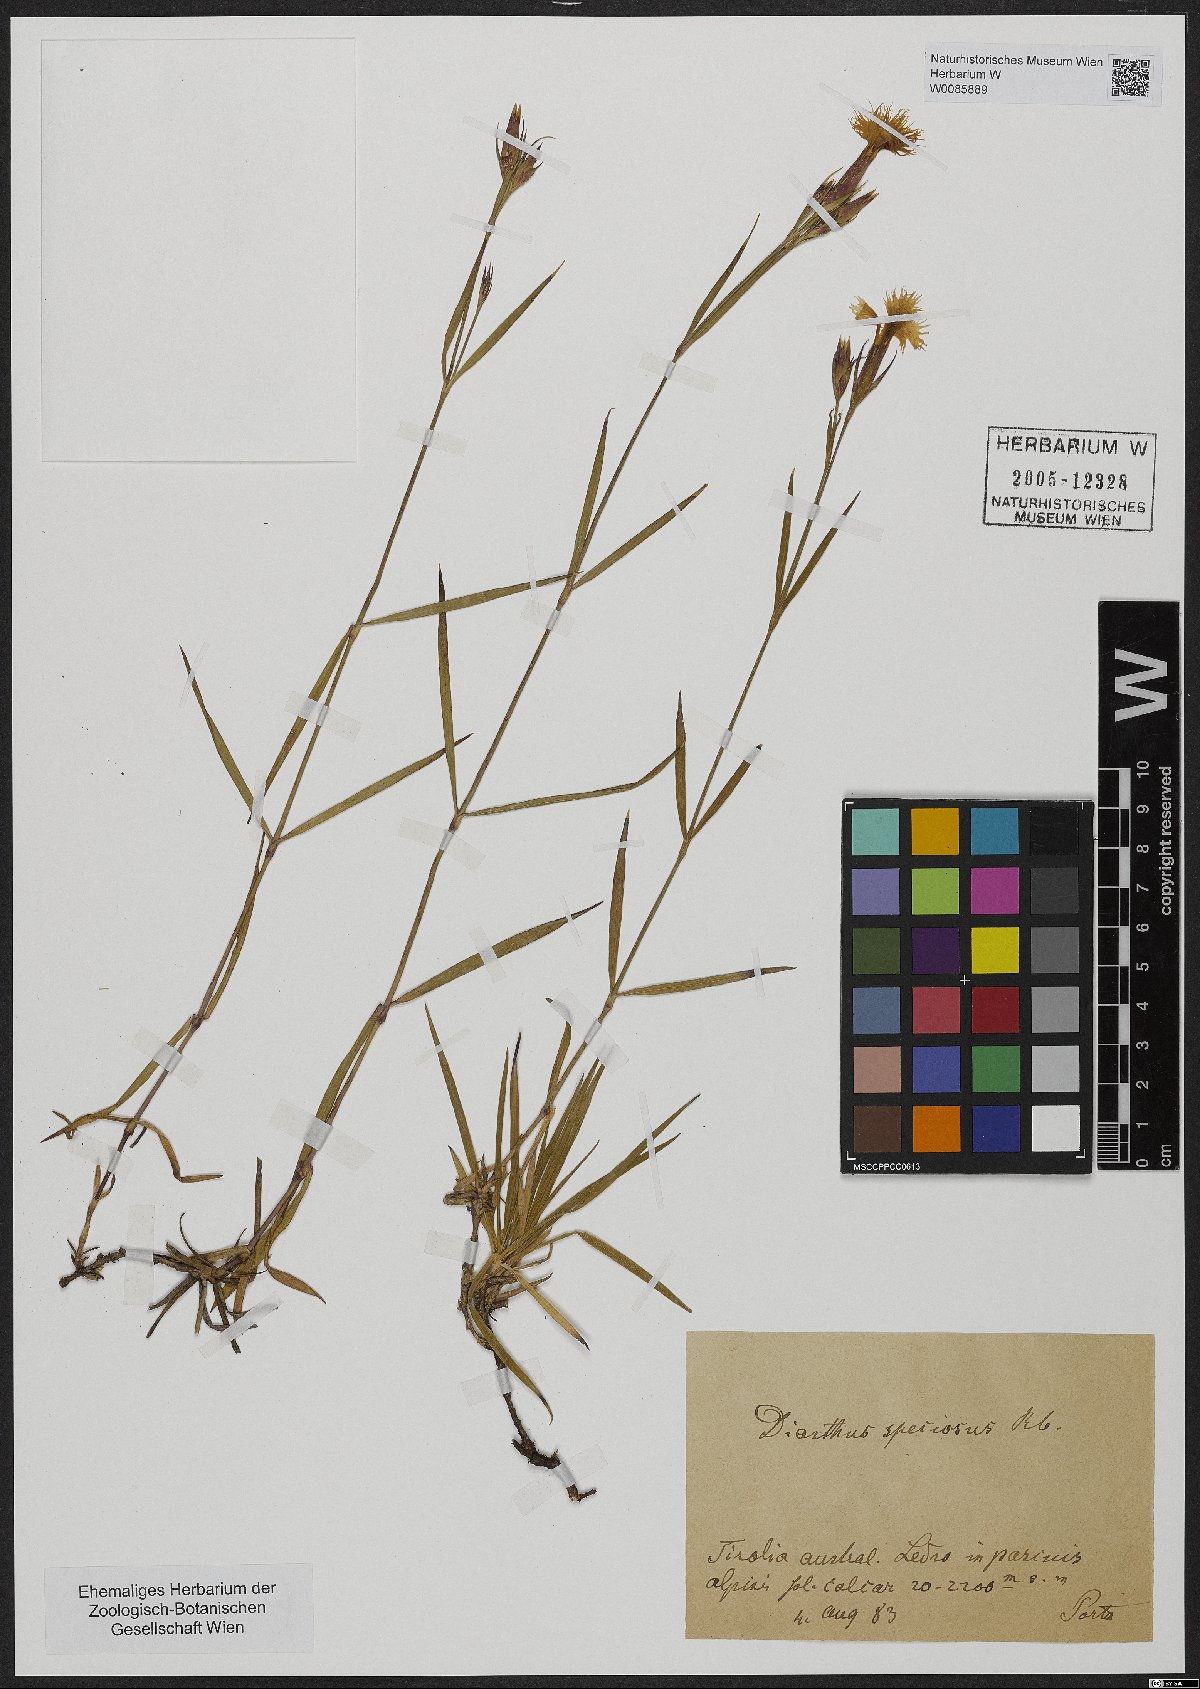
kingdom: Plantae
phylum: Tracheophyta
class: Magnoliopsida
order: Caryophyllales
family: Caryophyllaceae
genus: Dianthus
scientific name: Dianthus superbus
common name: Fringed pink
